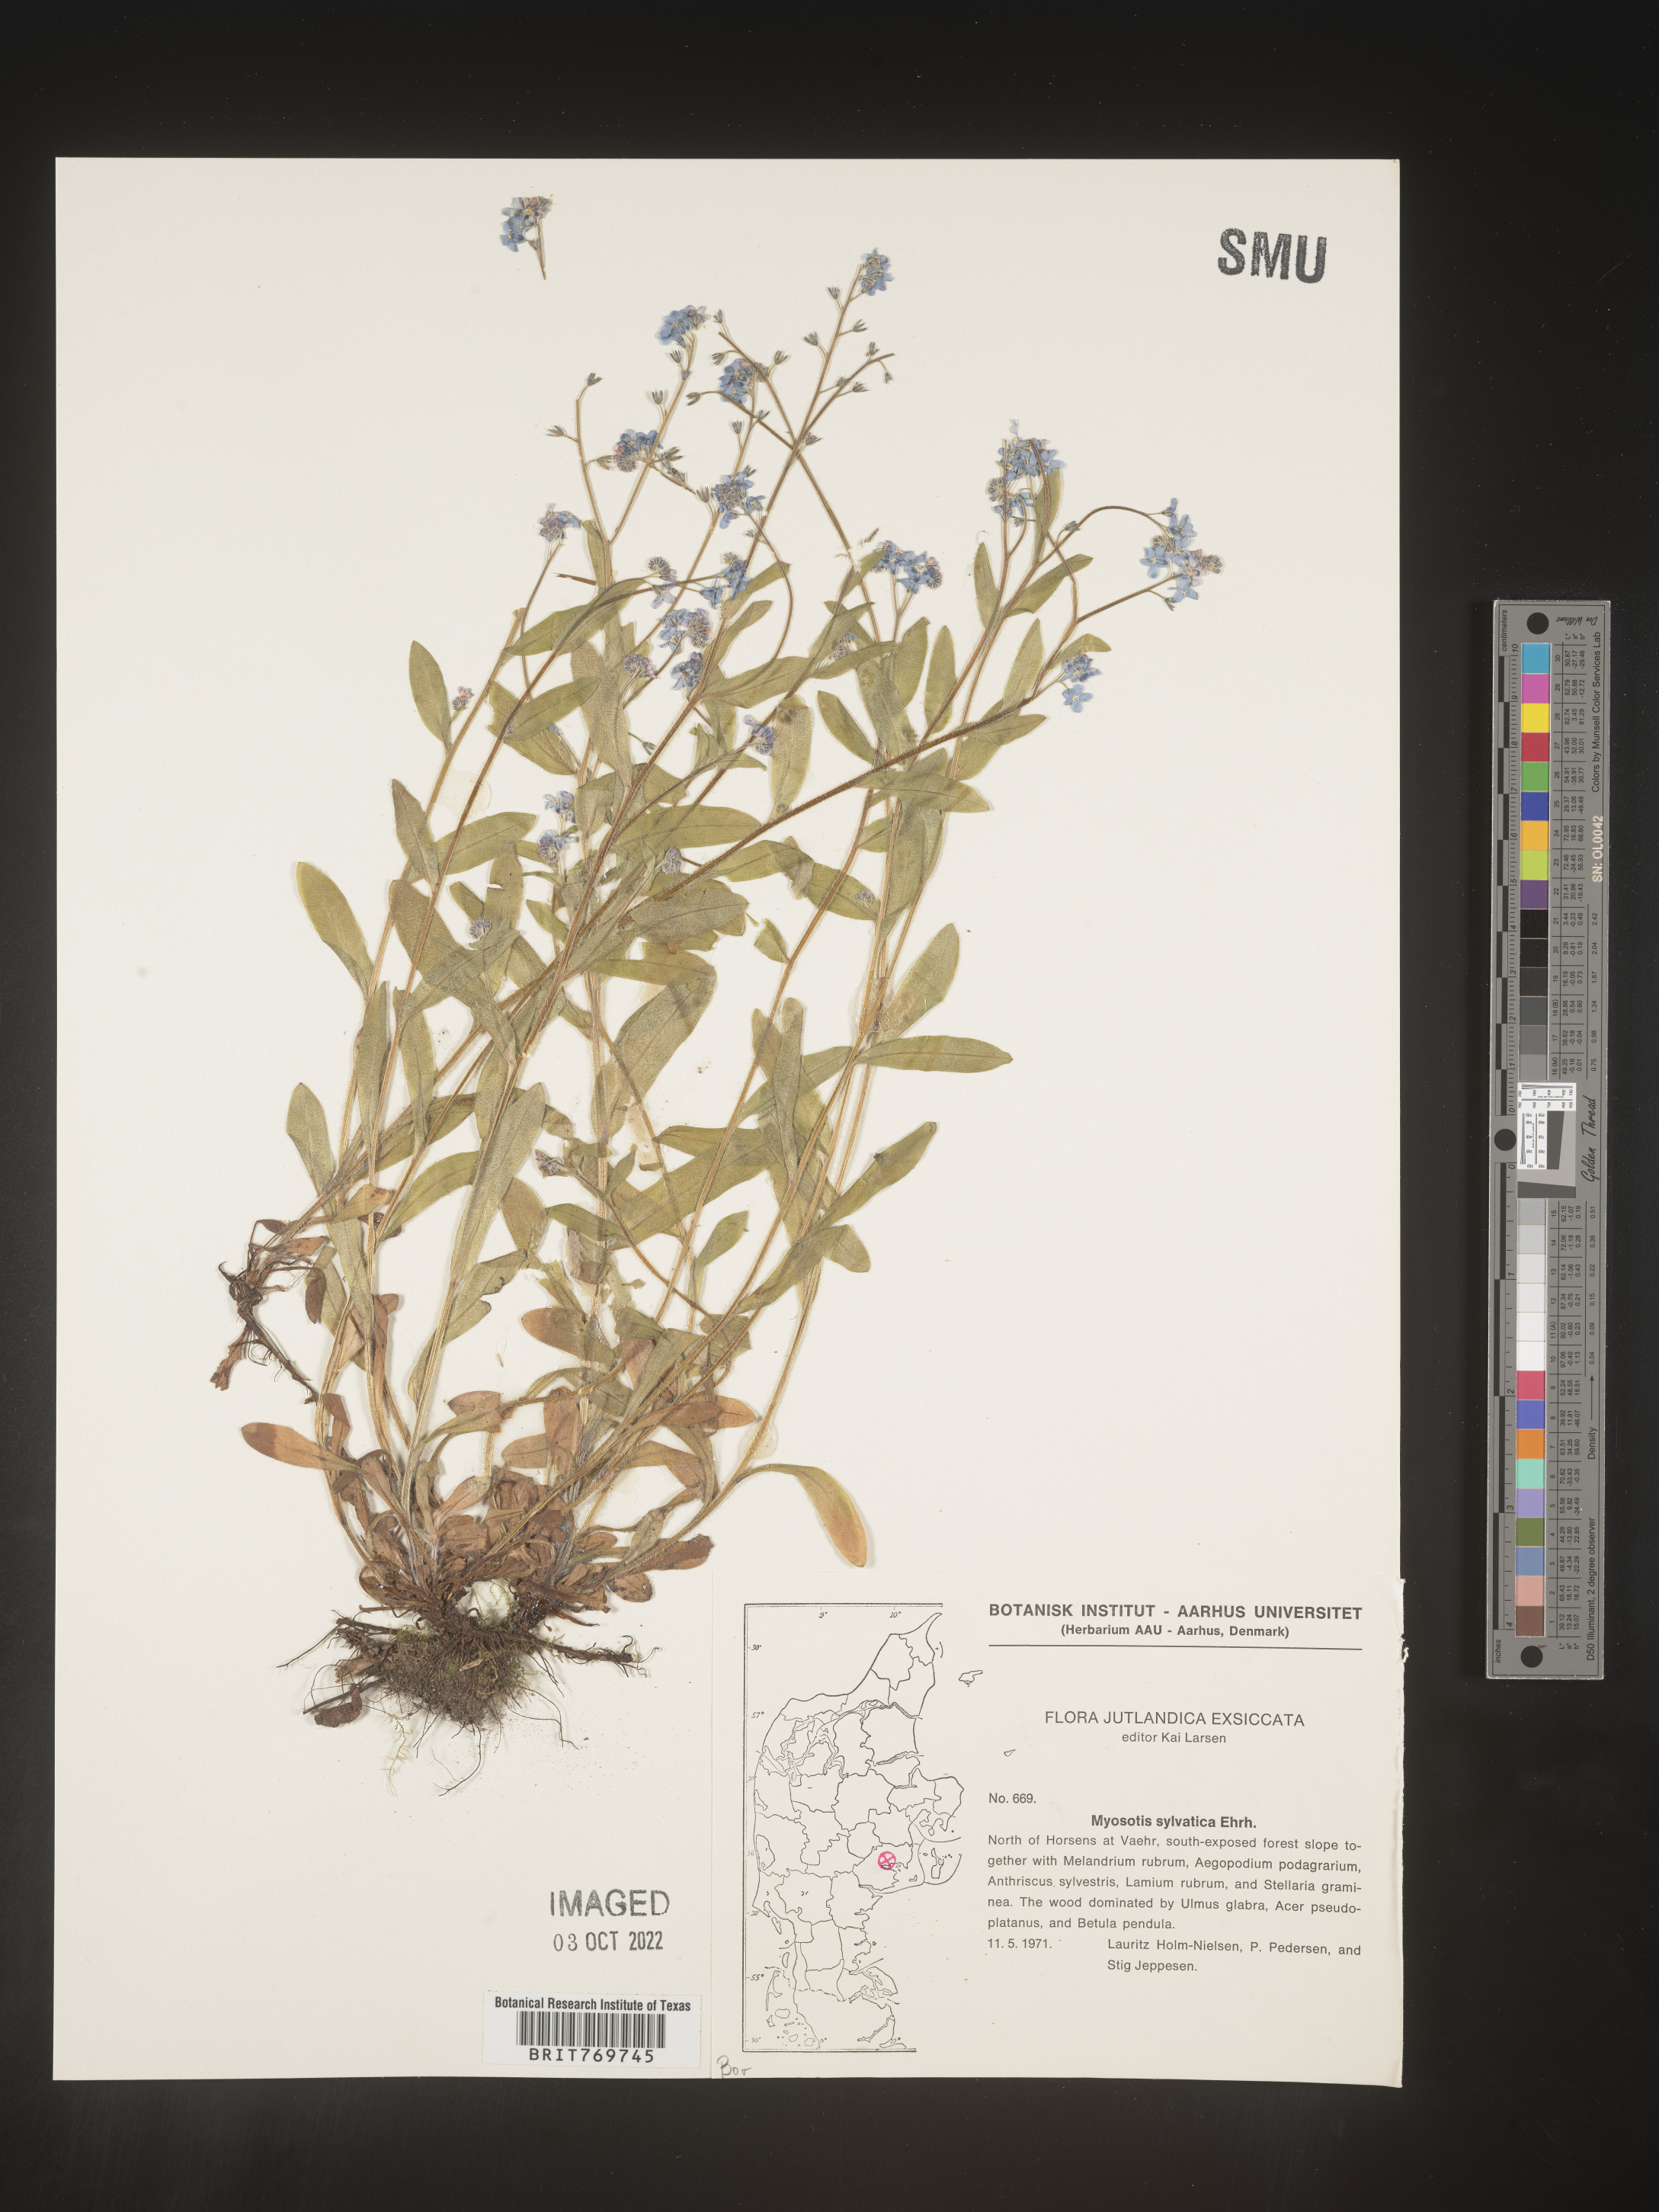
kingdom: Plantae
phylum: Tracheophyta
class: Magnoliopsida
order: Boraginales
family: Boraginaceae
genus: Myosotis
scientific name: Myosotis
